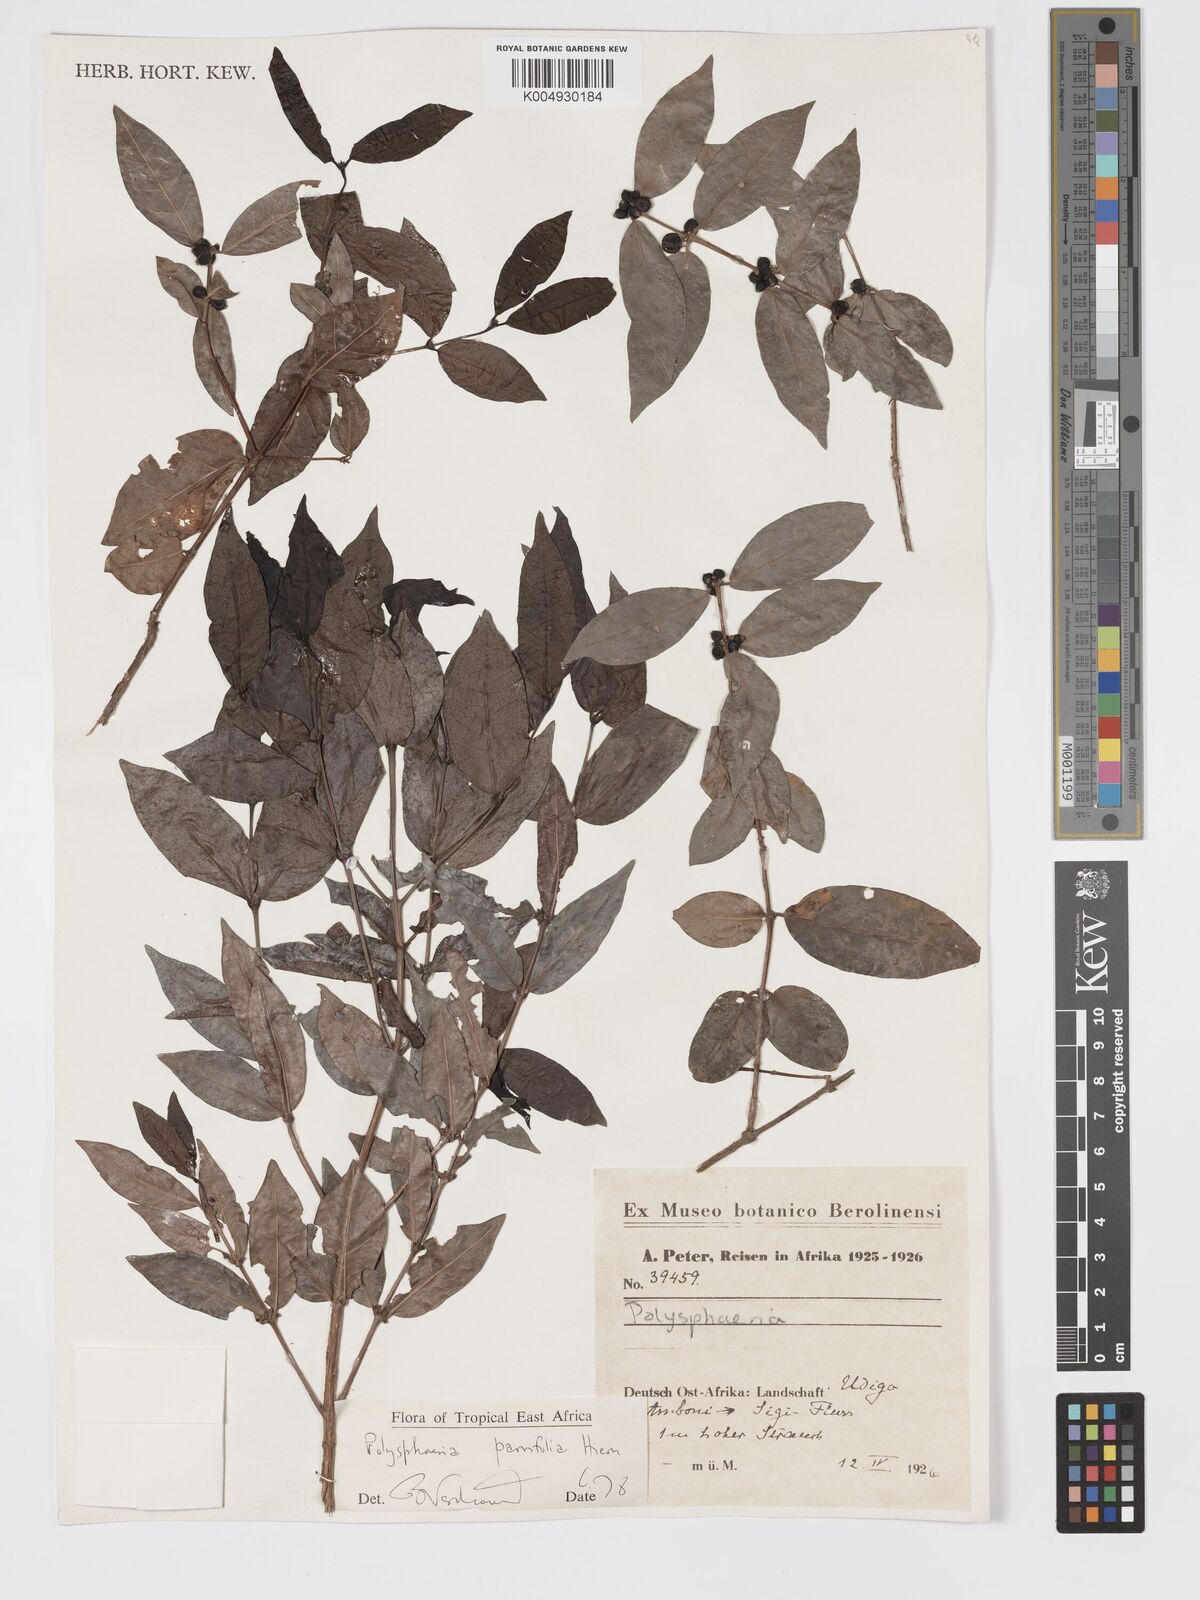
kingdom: Plantae
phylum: Tracheophyta
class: Magnoliopsida
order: Gentianales
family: Rubiaceae
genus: Polysphaeria
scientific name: Polysphaeria parvifolia
